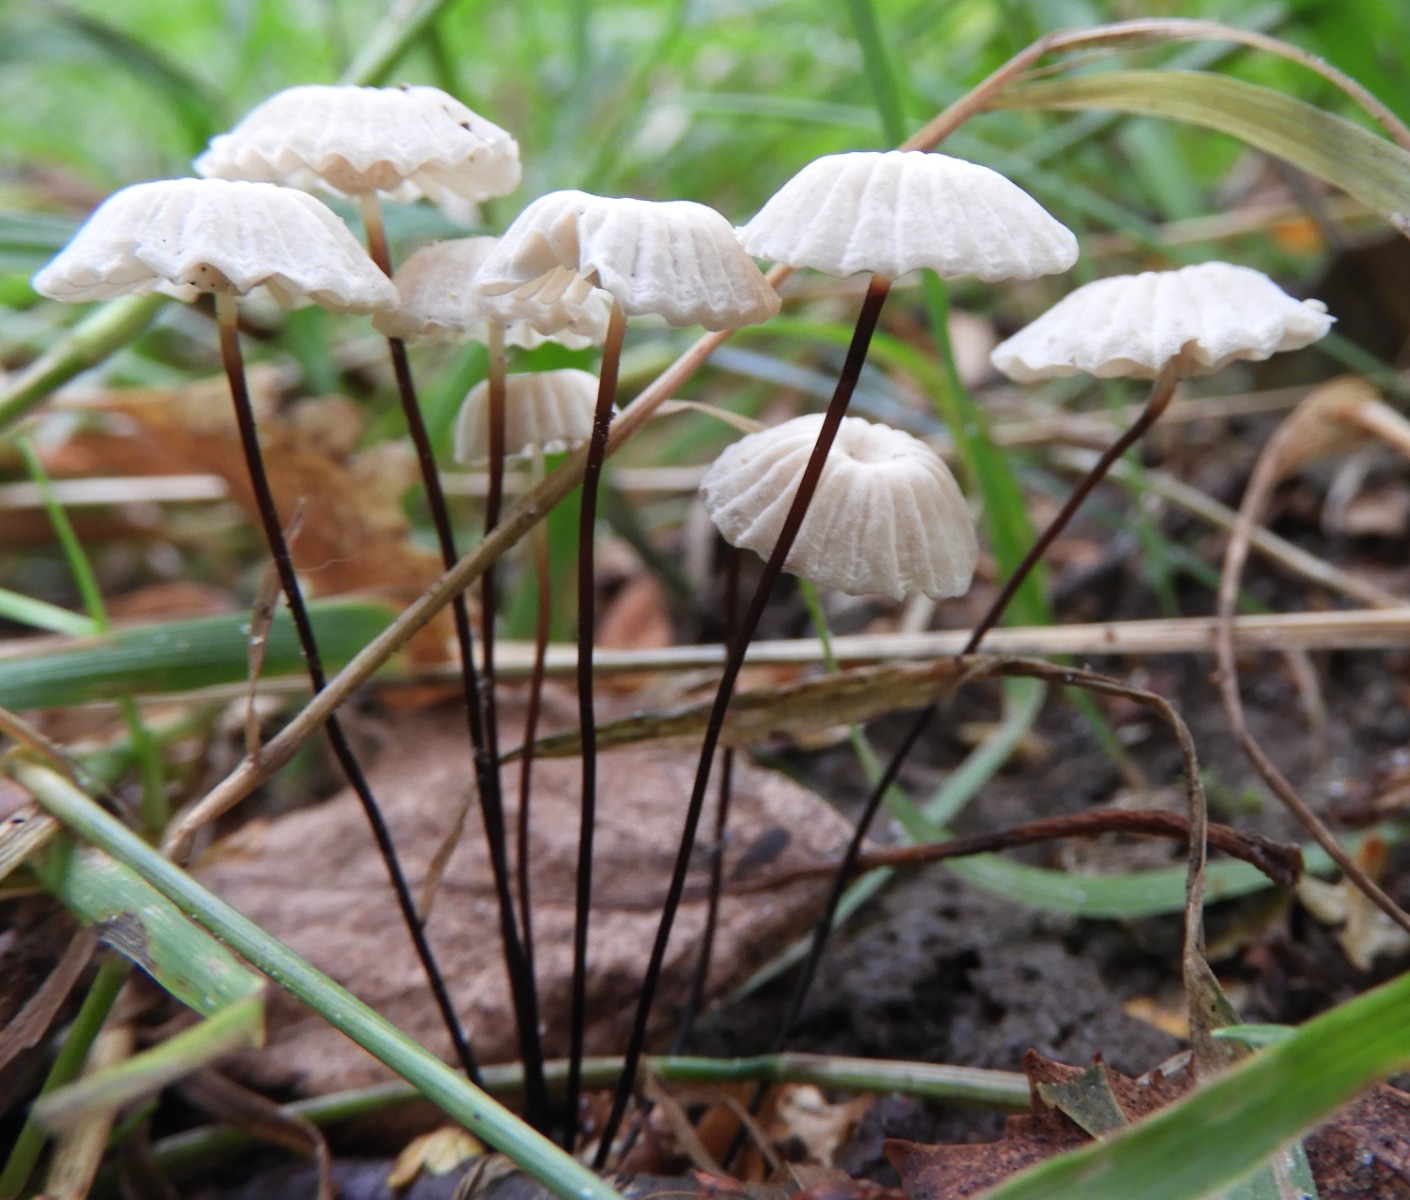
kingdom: Fungi
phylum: Basidiomycota
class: Agaricomycetes
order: Agaricales
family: Marasmiaceae
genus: Marasmius
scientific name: Marasmius rotula
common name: hjul-bruskhat
